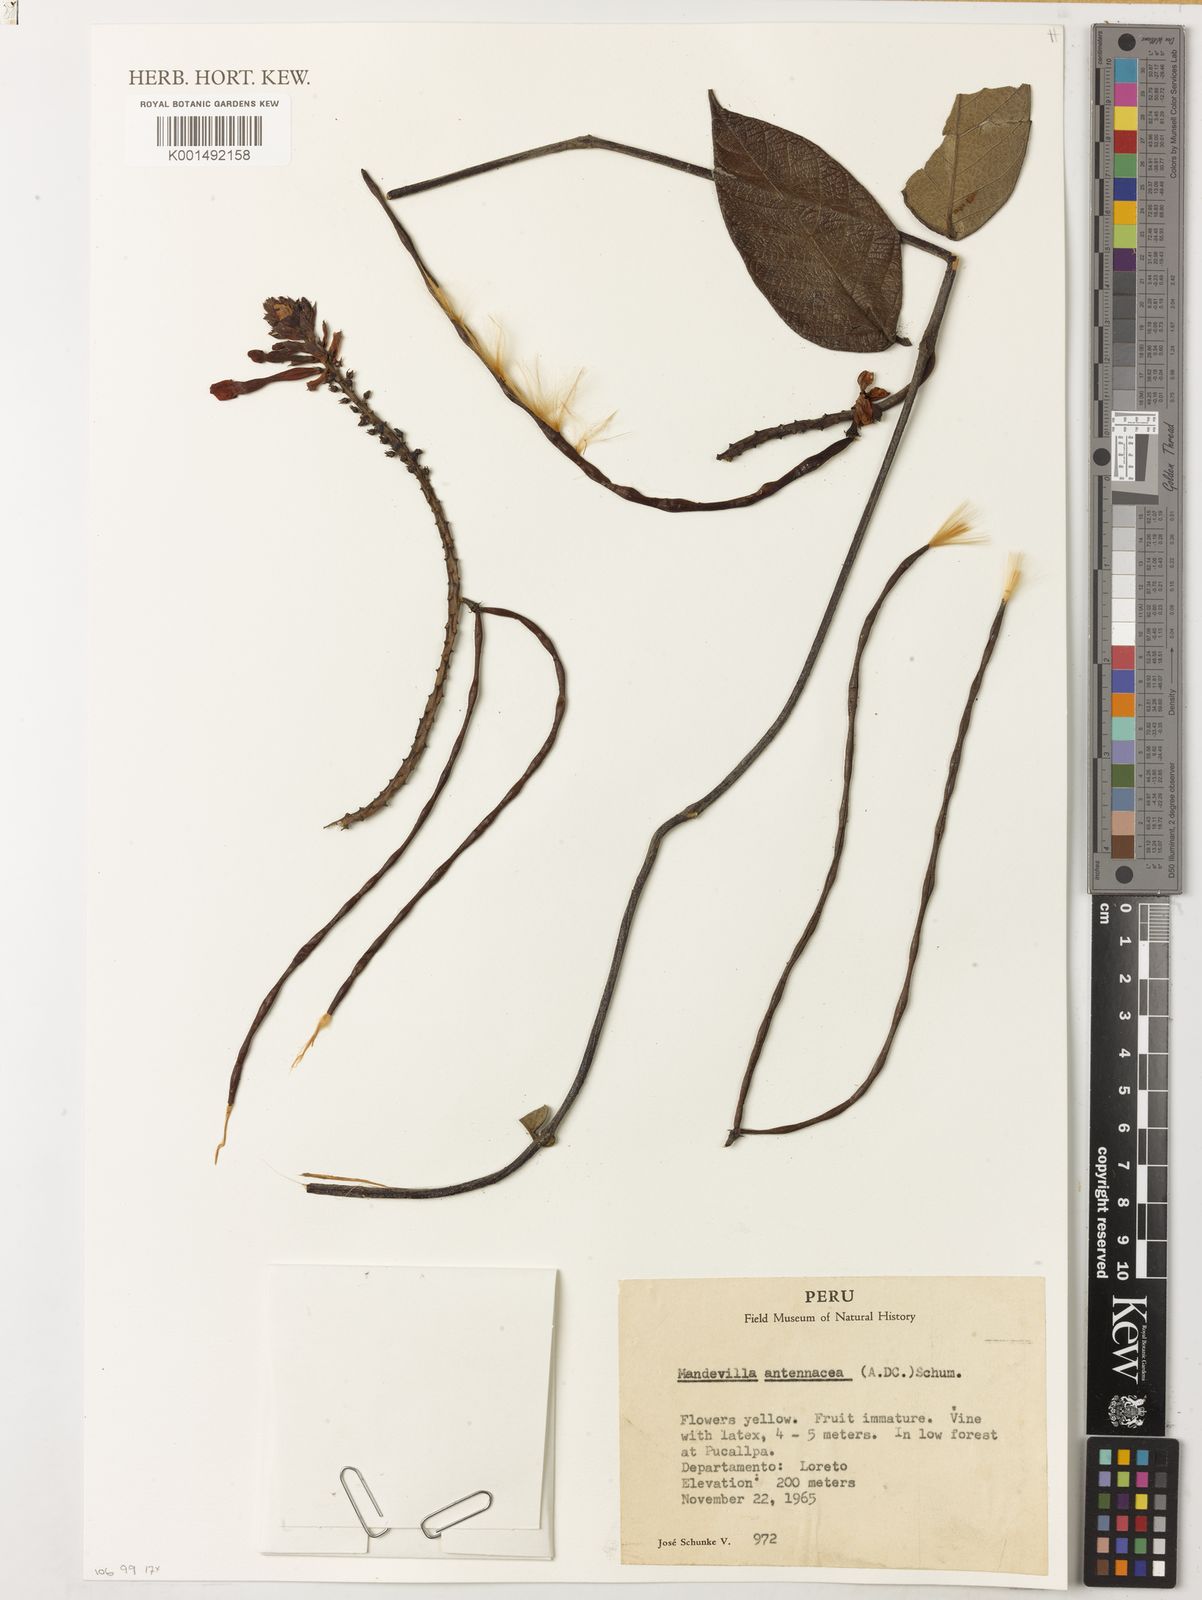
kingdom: Plantae
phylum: Tracheophyta
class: Magnoliopsida
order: Gentianales
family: Apocynaceae
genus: Mandevilla
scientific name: Mandevilla rugellosa
